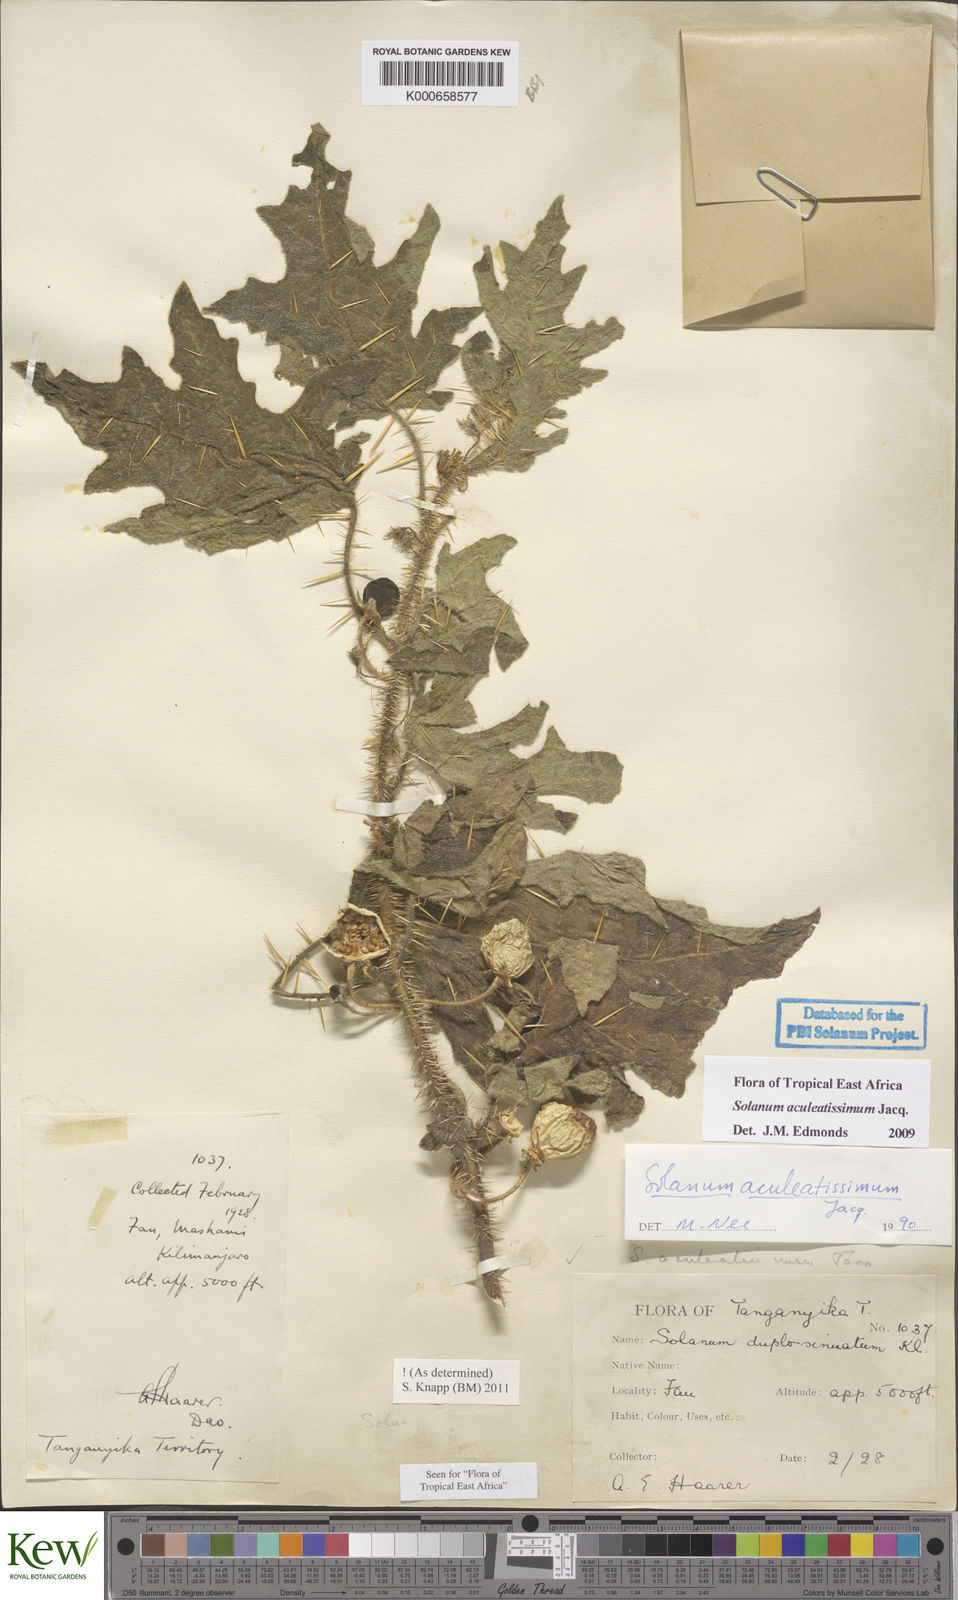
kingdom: Plantae
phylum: Tracheophyta
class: Magnoliopsida
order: Solanales
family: Solanaceae
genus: Solanum
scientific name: Solanum aculeatissimum
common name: Dutch eggplant
